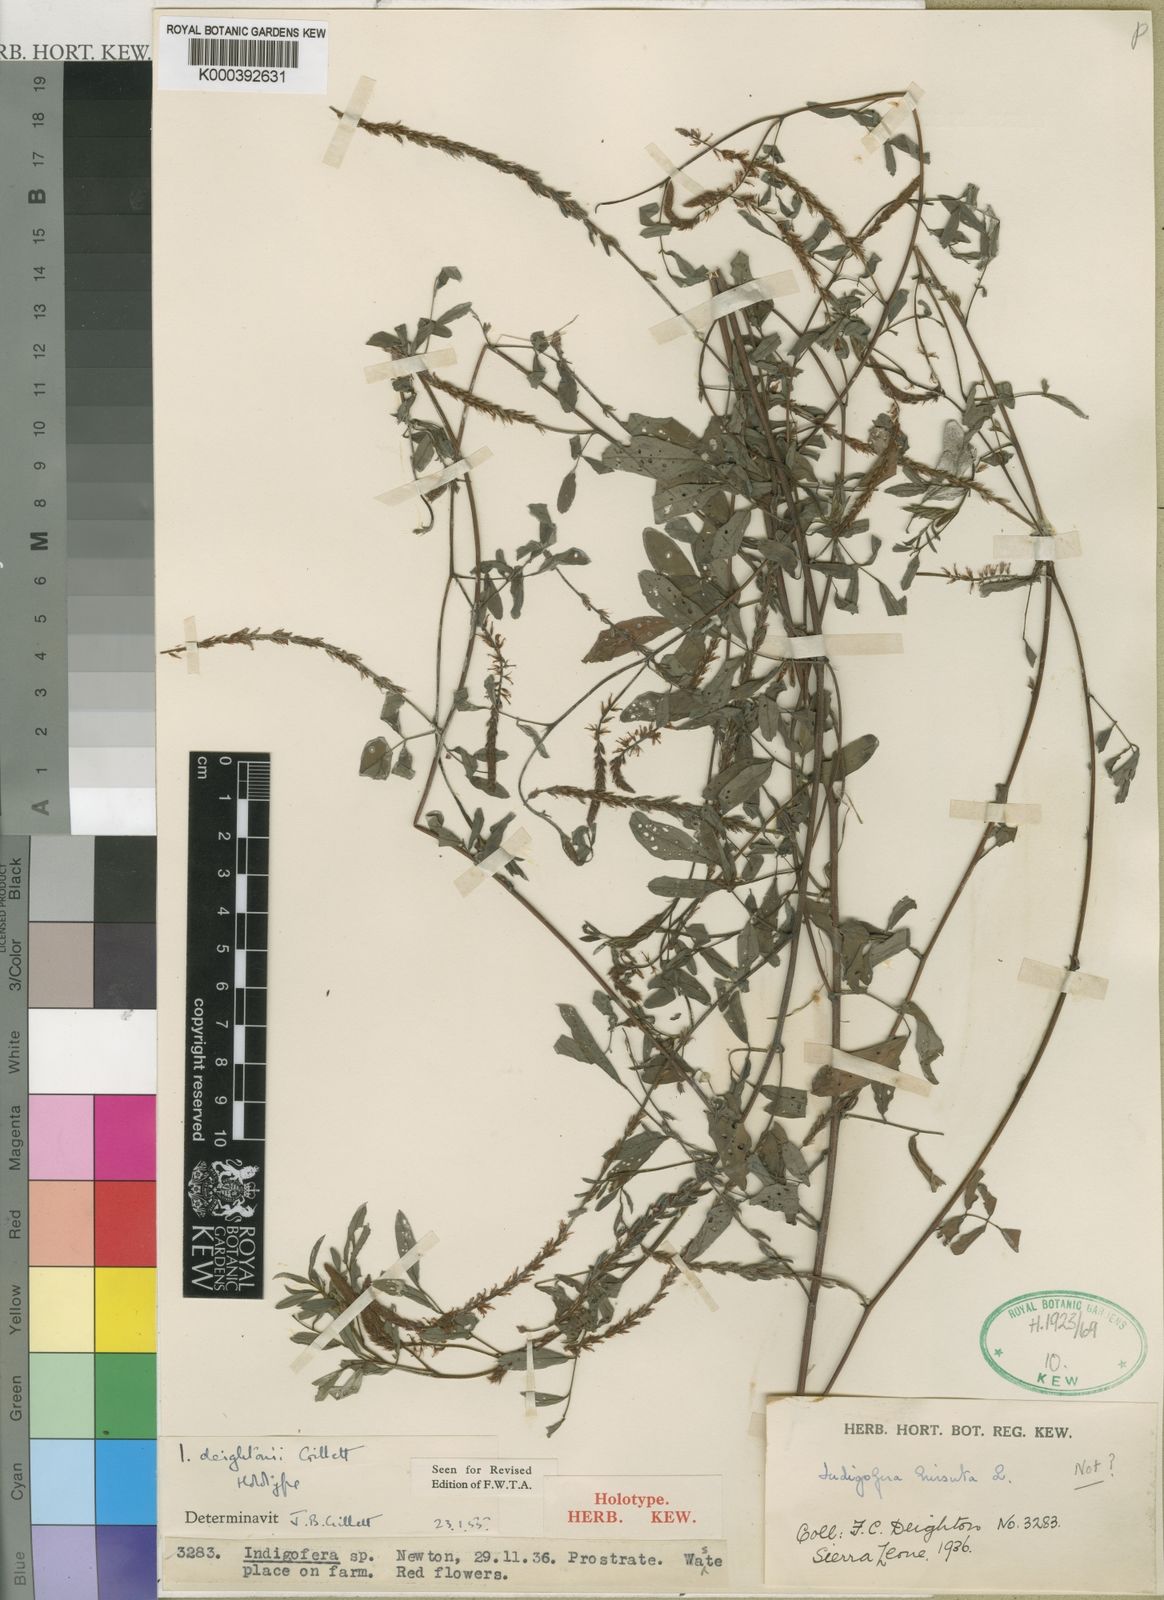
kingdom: Plantae
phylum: Tracheophyta
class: Magnoliopsida
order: Fabales
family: Fabaceae
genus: Indigofera
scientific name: Indigofera deightonii
